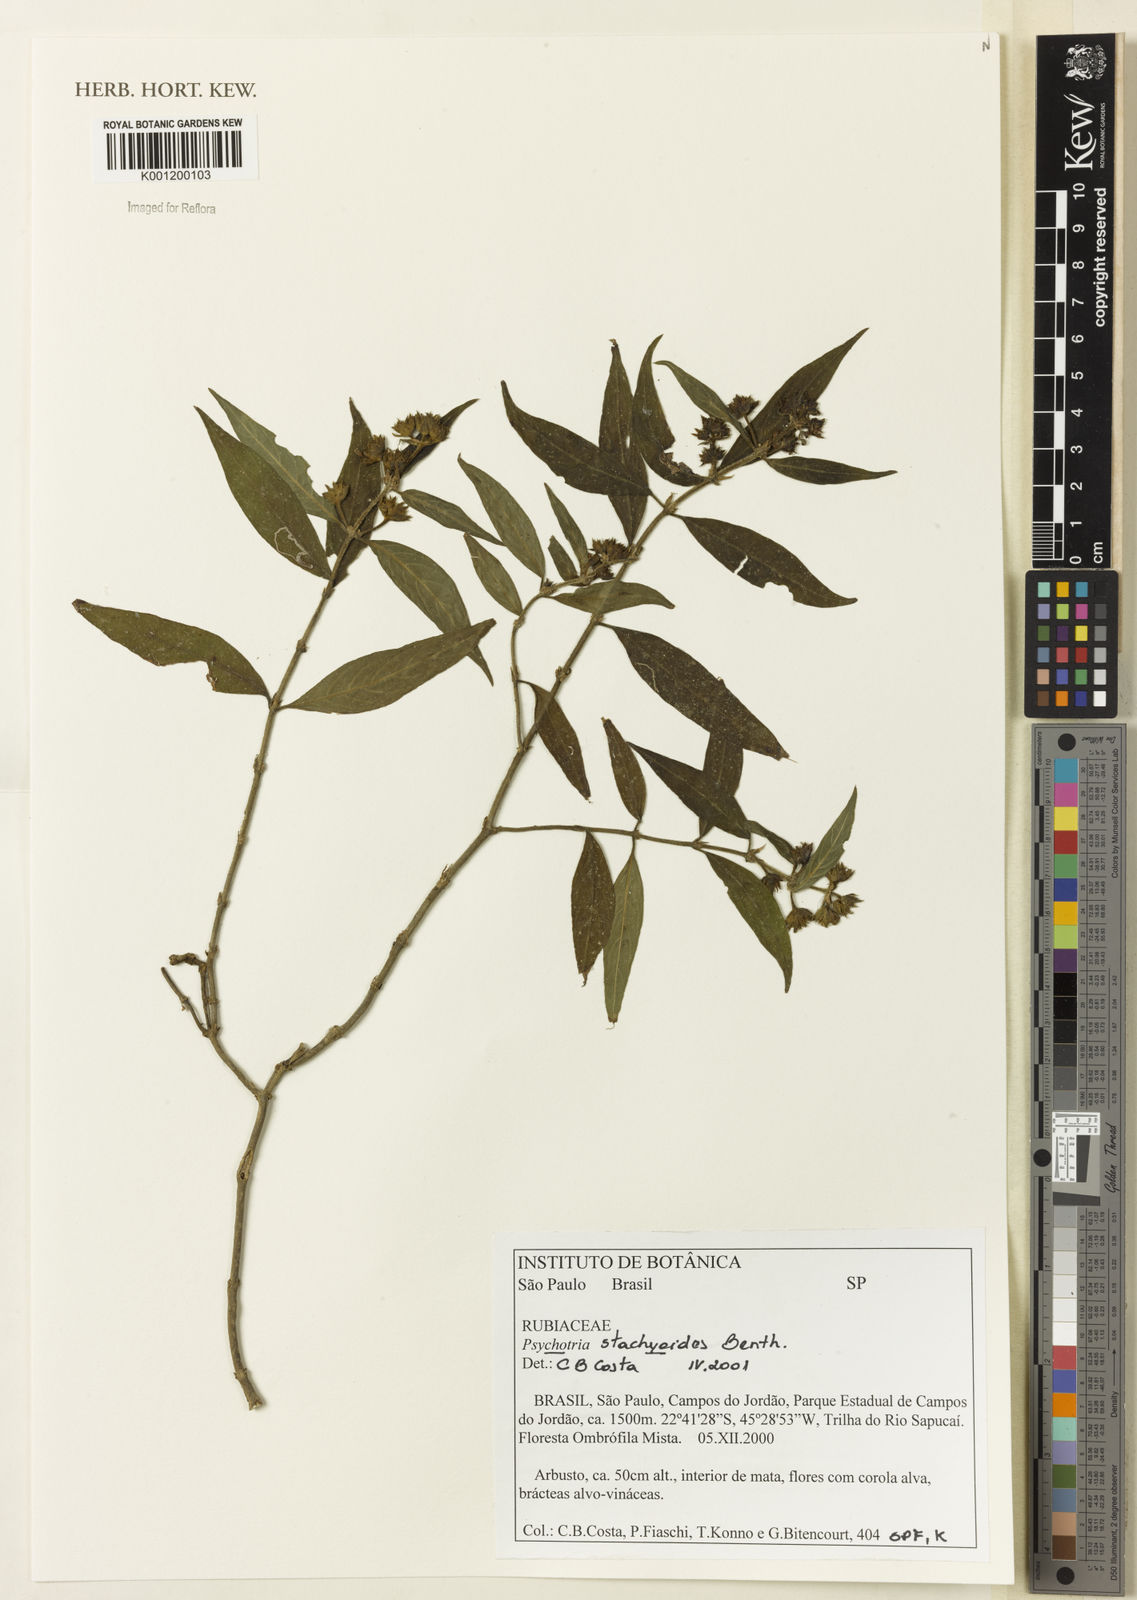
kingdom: Plantae
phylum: Tracheophyta
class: Magnoliopsida
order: Gentianales
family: Rubiaceae
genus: Psychotria
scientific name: Psychotria stachyoides
